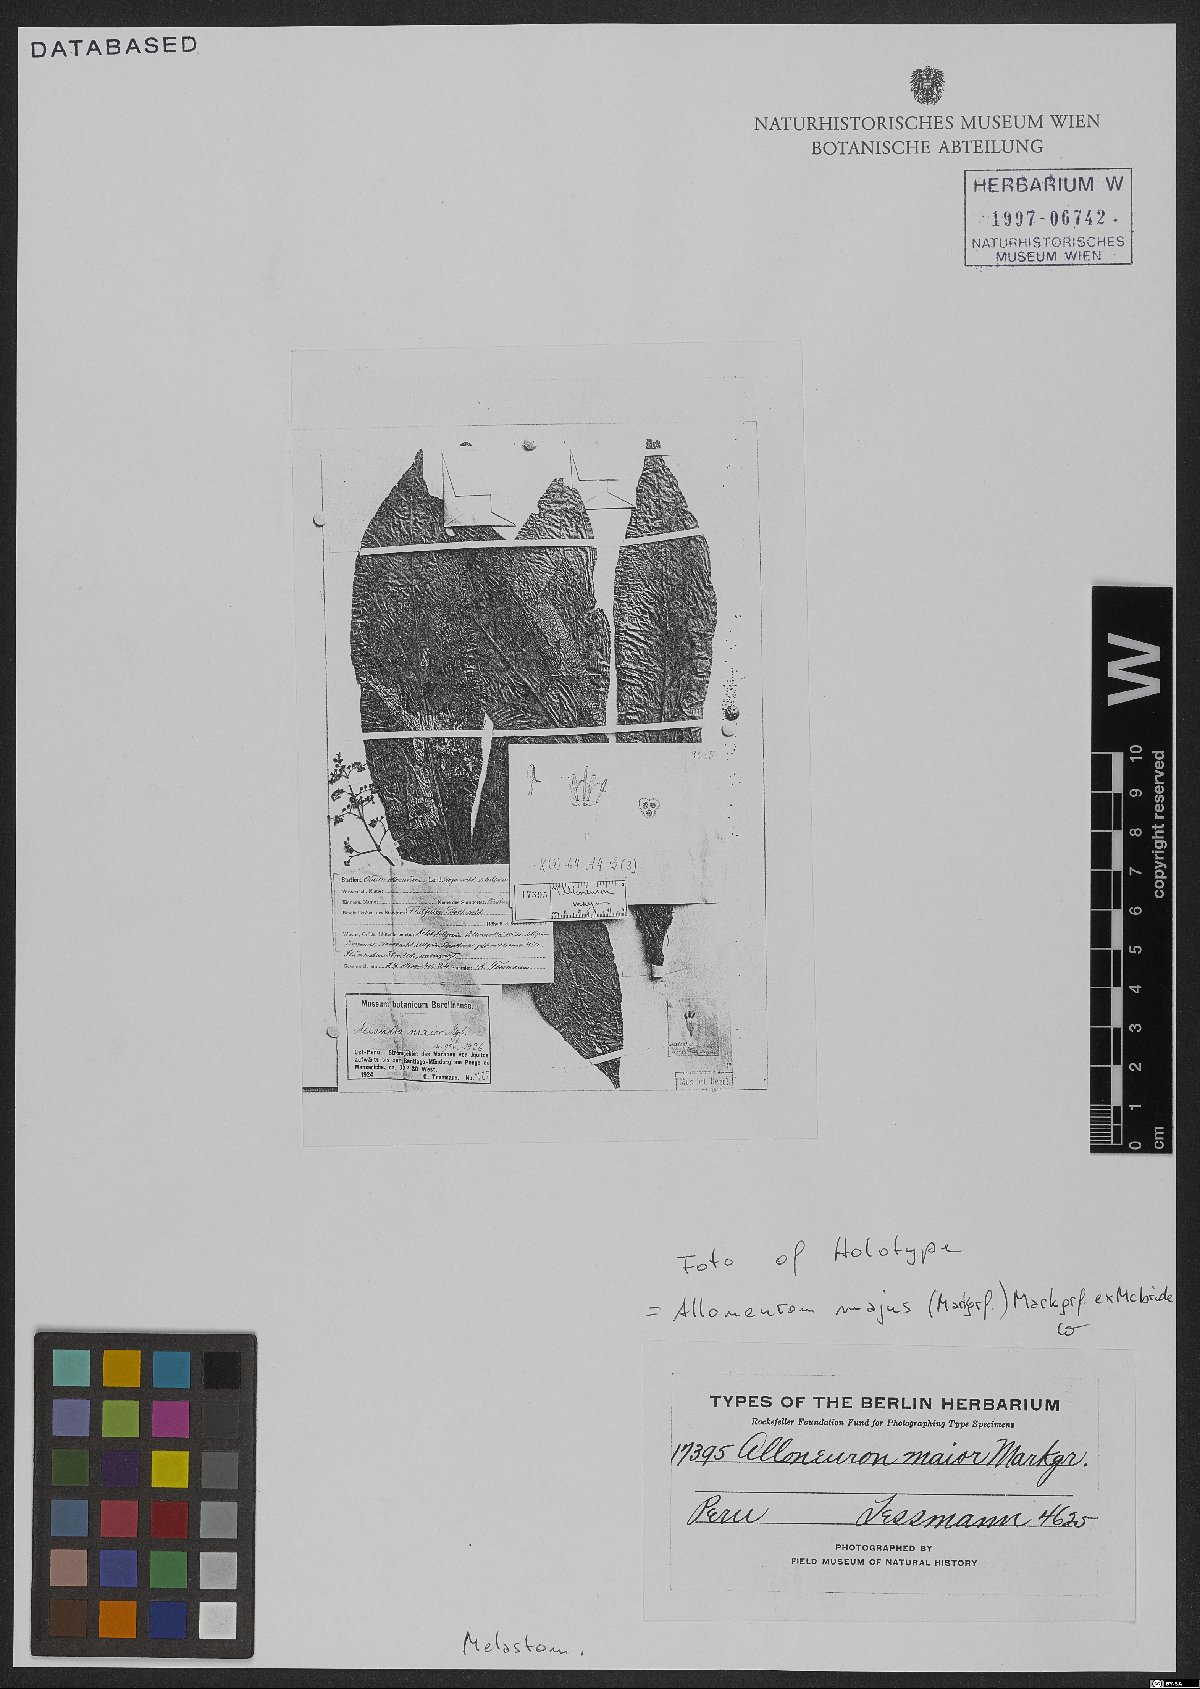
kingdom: Plantae
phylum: Tracheophyta
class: Magnoliopsida
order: Myrtales
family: Melastomataceae
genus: Alloneuron
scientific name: Alloneuron majus
